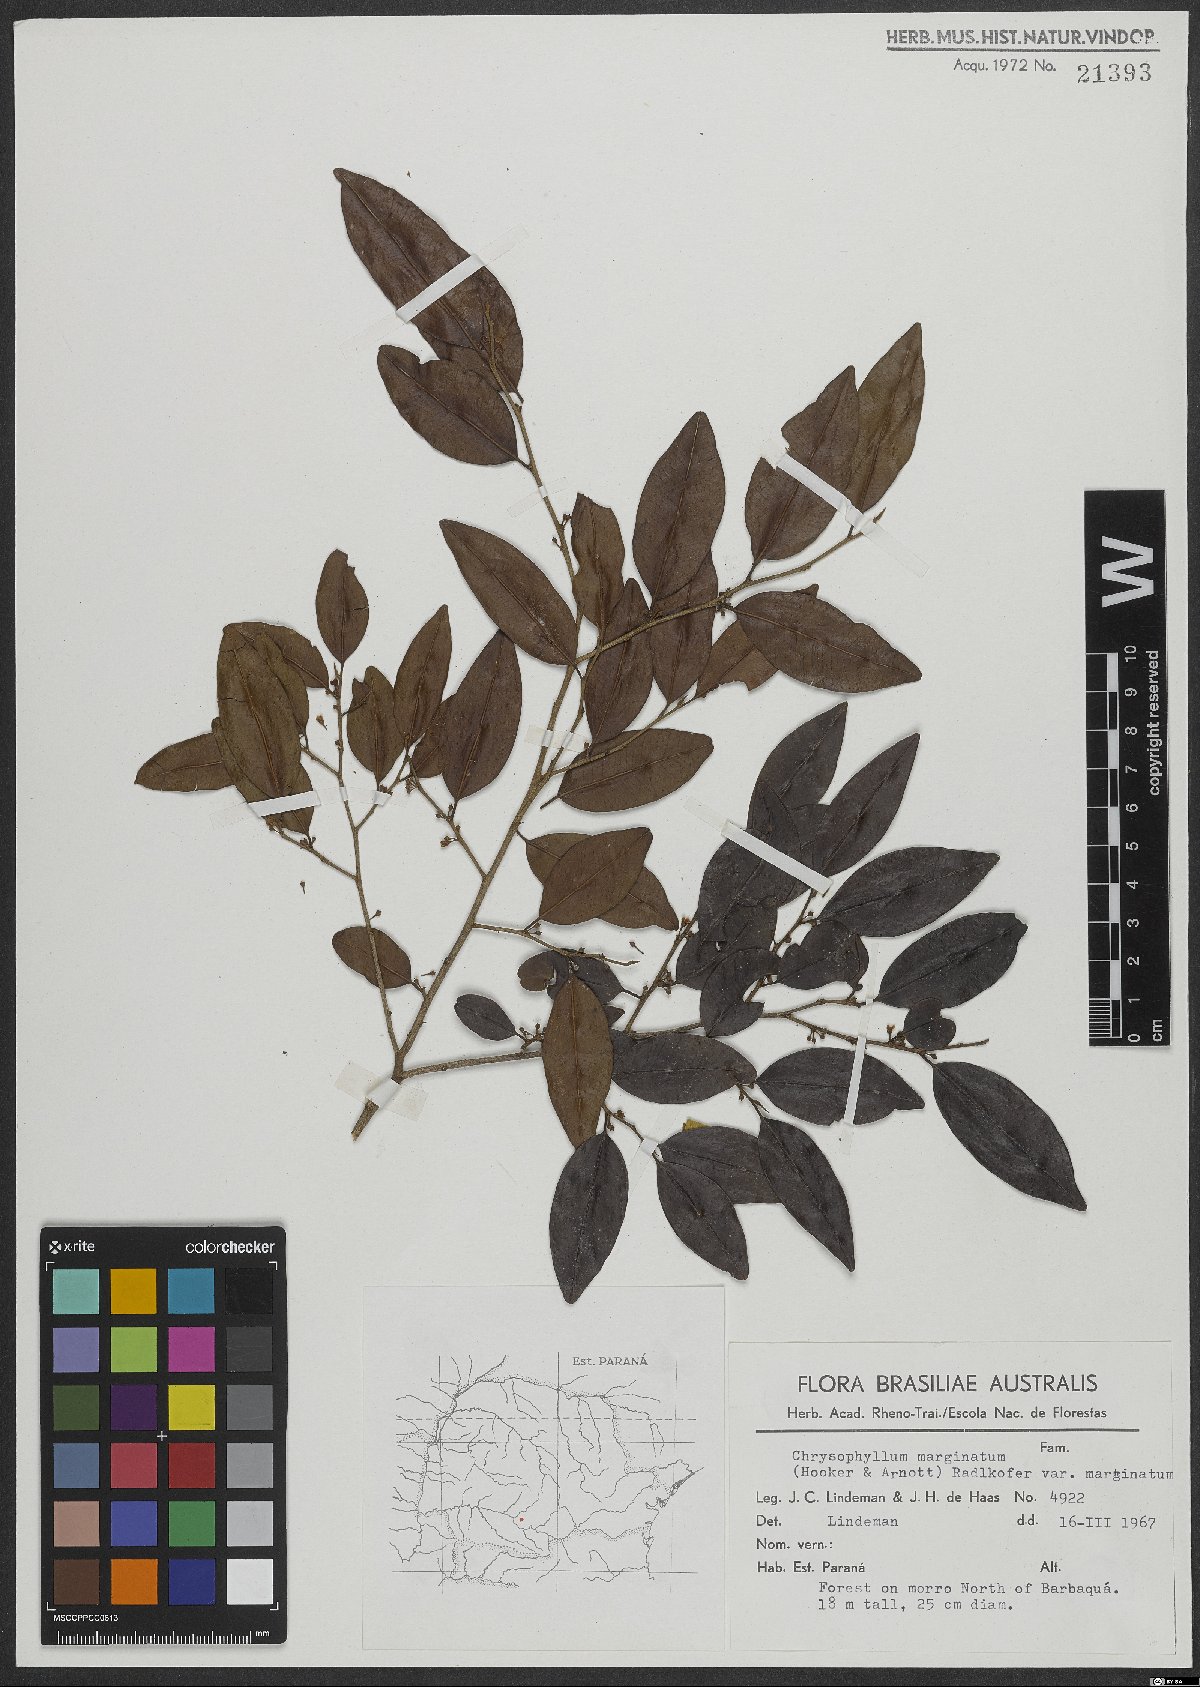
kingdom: Plantae
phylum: Tracheophyta
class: Magnoliopsida
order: Ericales
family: Sapotaceae
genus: Chrysophyllum
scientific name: Chrysophyllum marginatum
